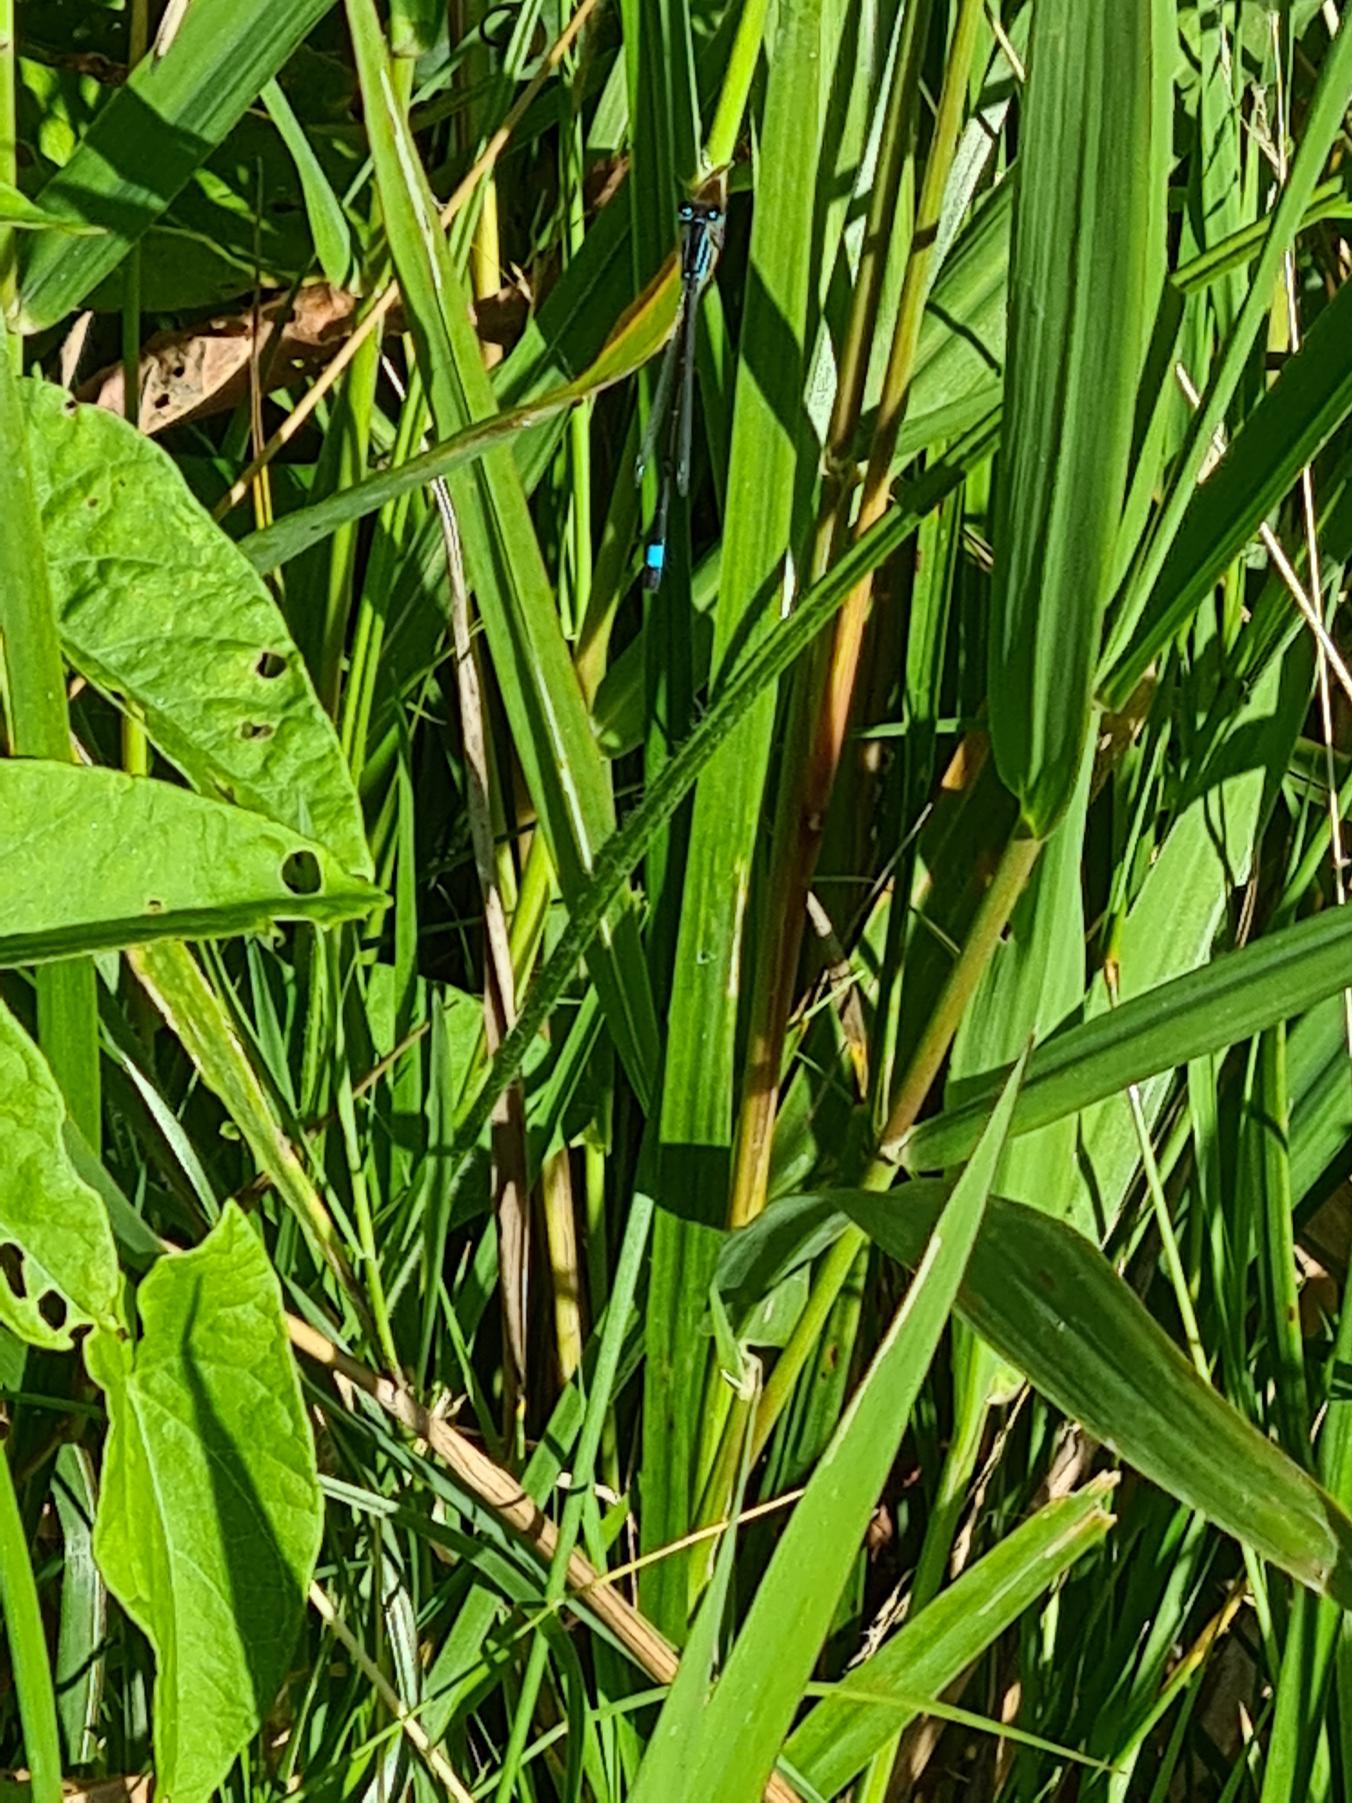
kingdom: Animalia
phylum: Arthropoda
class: Insecta
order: Odonata
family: Coenagrionidae
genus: Ischnura
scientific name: Ischnura elegans
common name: Stor farvevandnymfe
